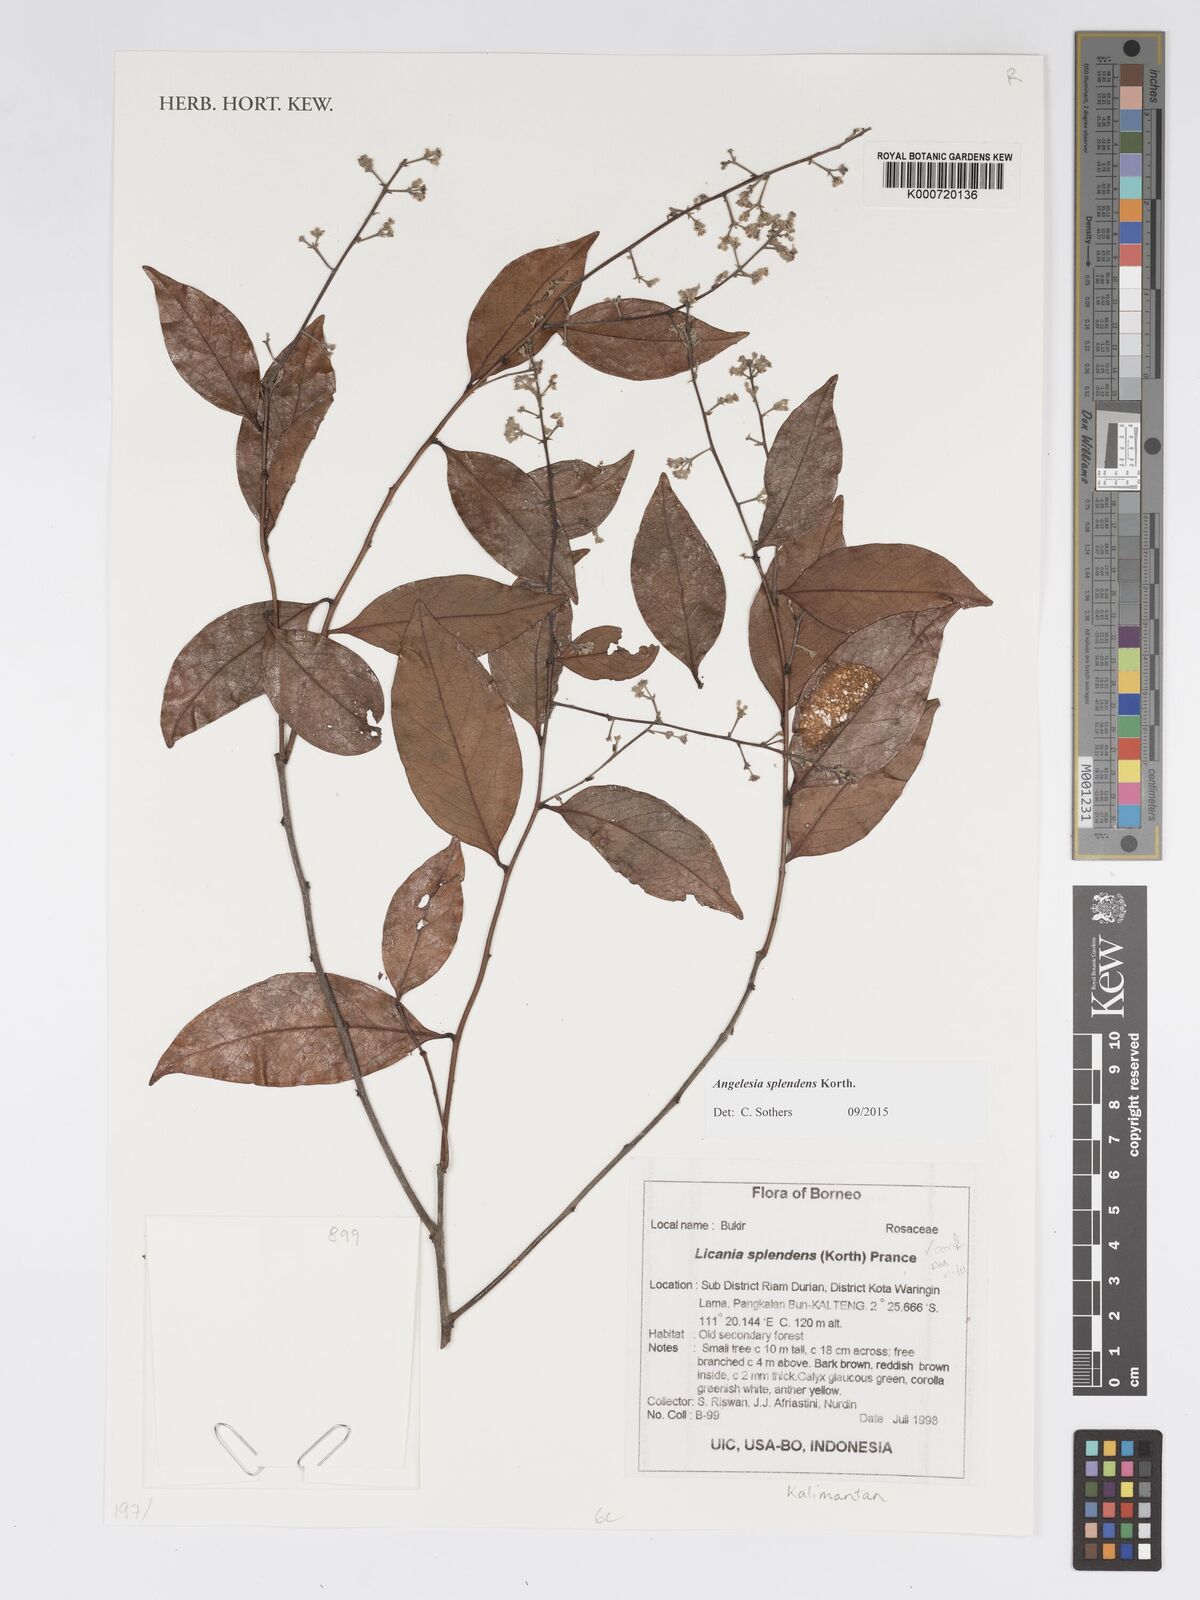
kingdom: Plantae
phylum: Tracheophyta
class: Magnoliopsida
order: Malpighiales
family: Chrysobalanaceae
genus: Angelesia
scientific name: Angelesia splendens
